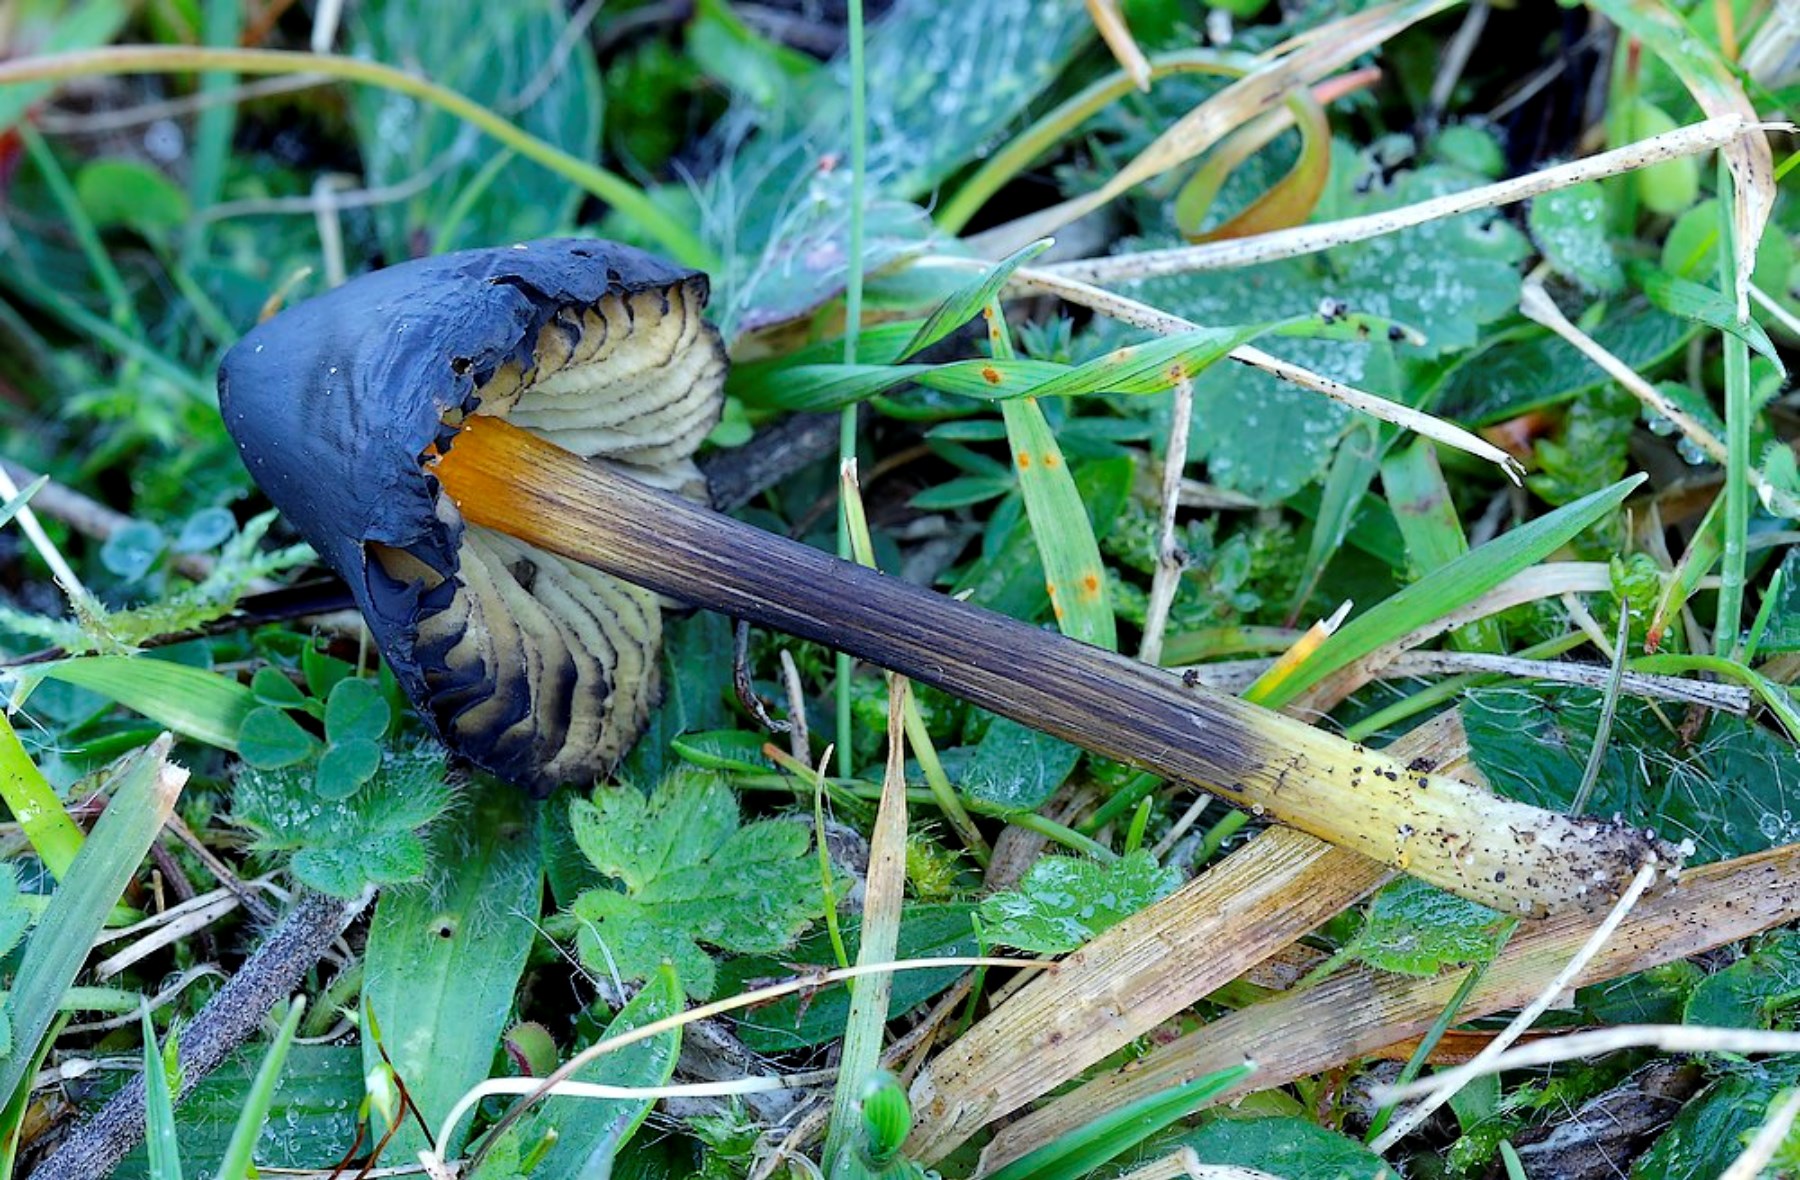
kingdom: Fungi
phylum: Basidiomycota
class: Agaricomycetes
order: Agaricales
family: Hygrophoraceae
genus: Hygrocybe
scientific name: Hygrocybe conica
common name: kegle-vokshat
